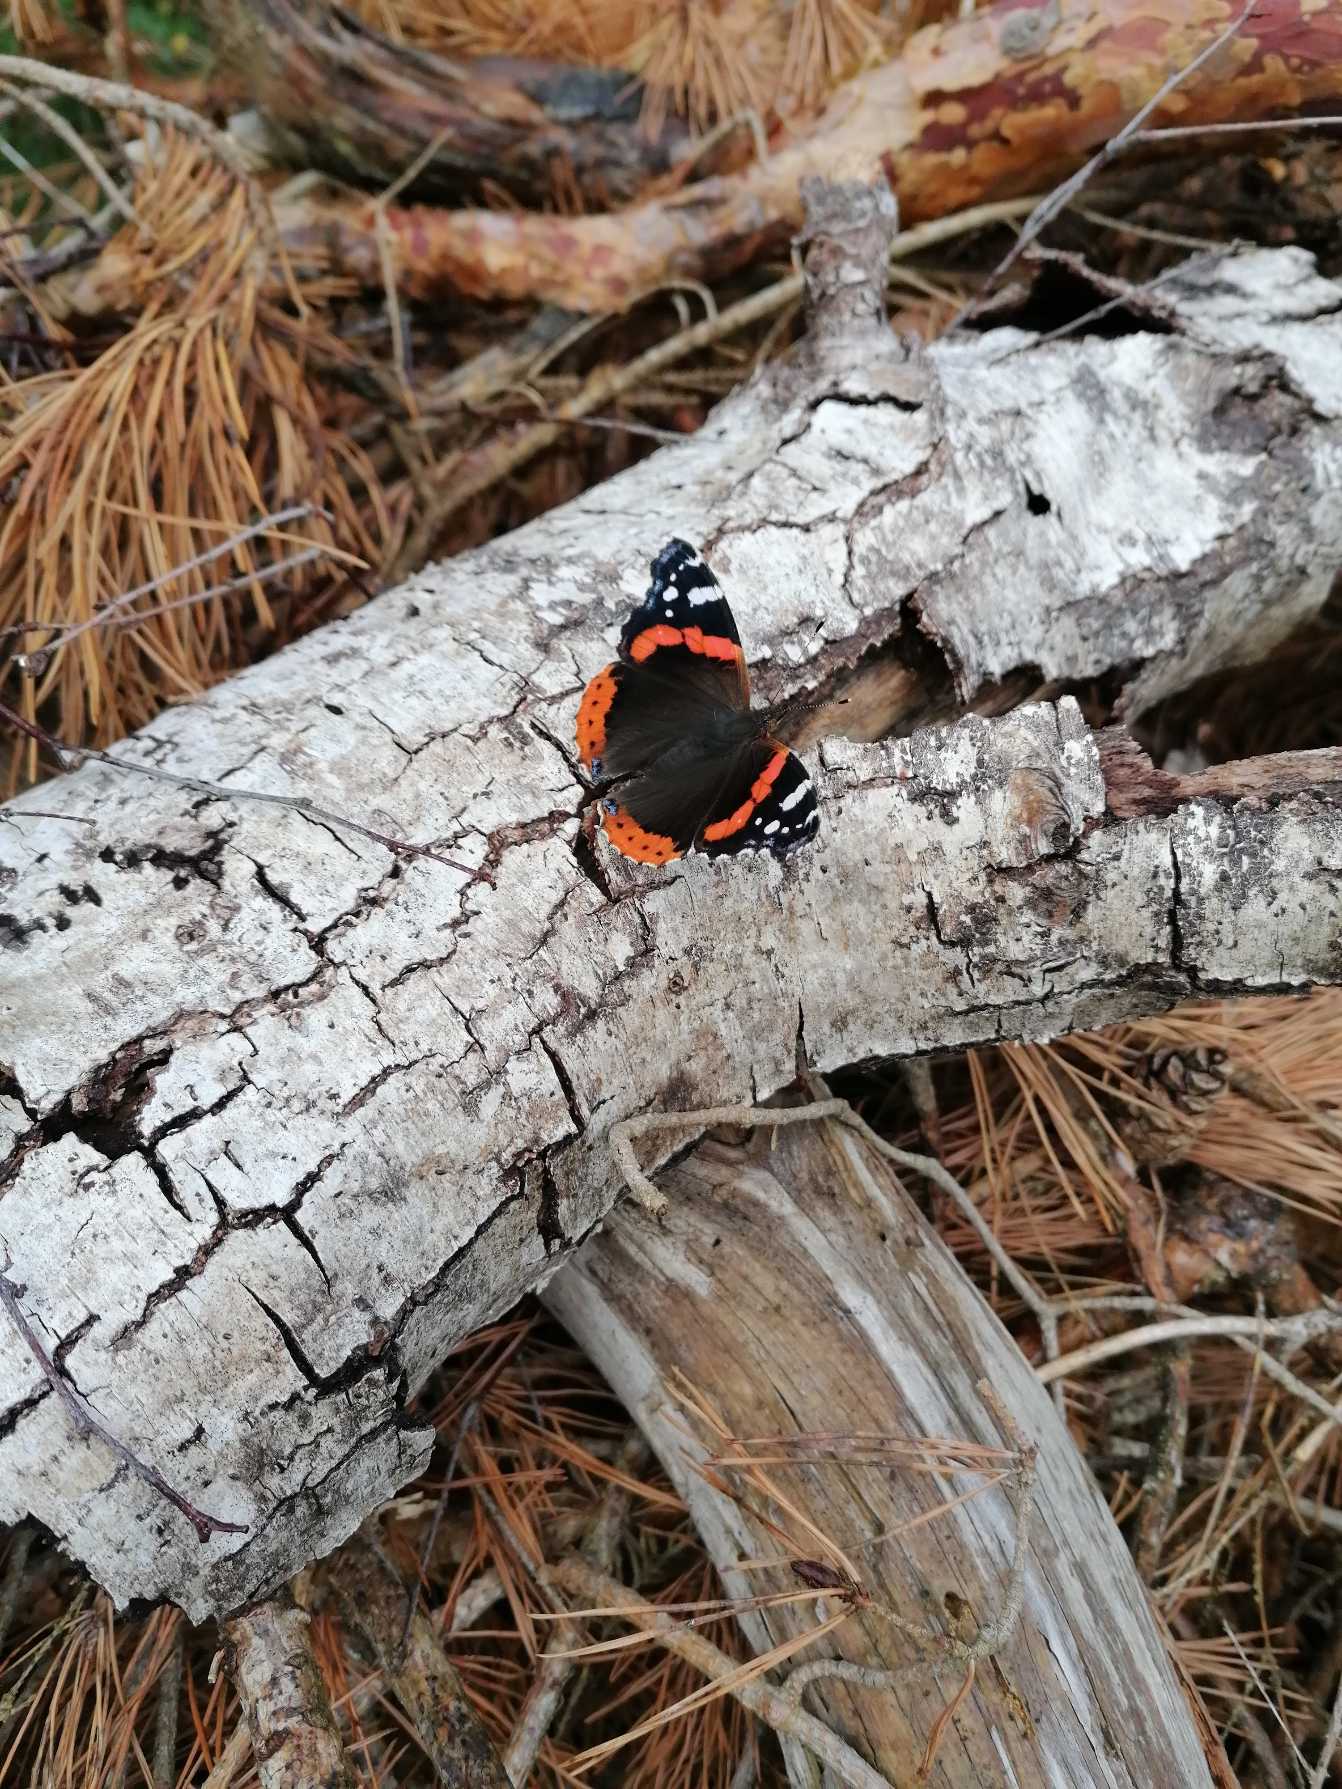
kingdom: Animalia
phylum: Arthropoda
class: Insecta
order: Lepidoptera
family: Nymphalidae
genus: Vanessa
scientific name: Vanessa atalanta
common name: Admiral
